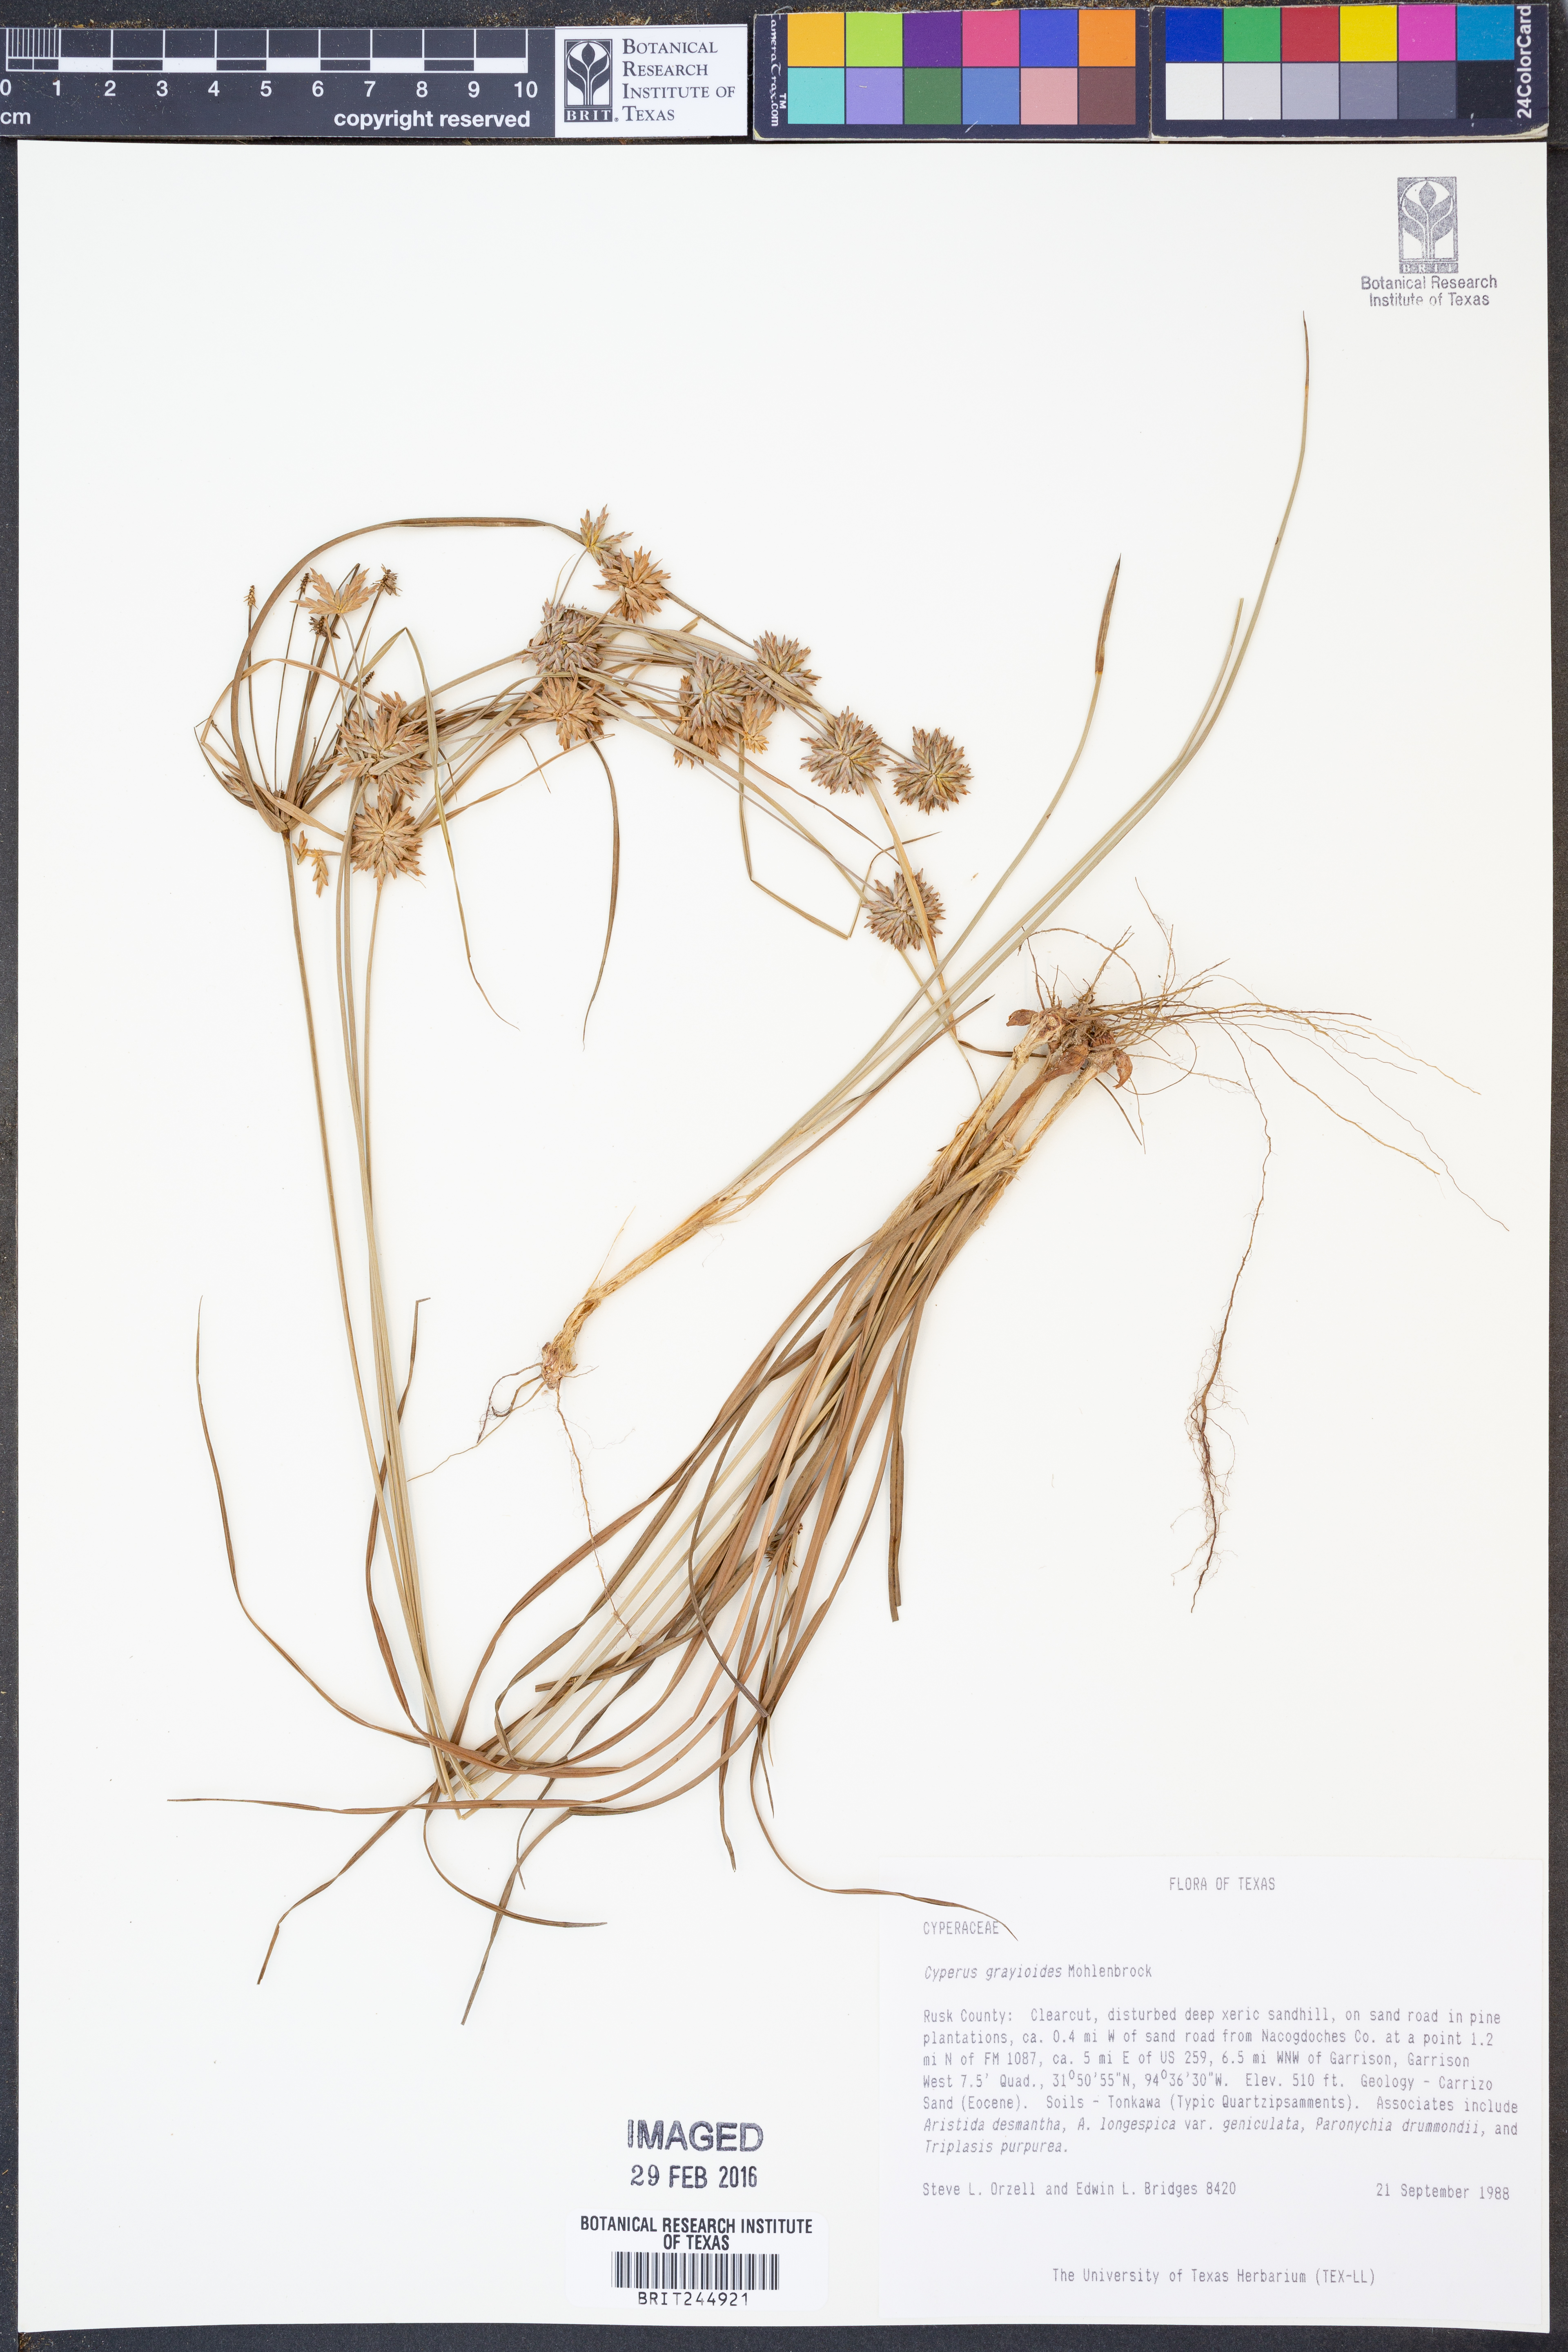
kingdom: Plantae
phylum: Tracheophyta
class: Liliopsida
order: Poales
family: Cyperaceae
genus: Cyperus
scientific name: Cyperus grayioides
